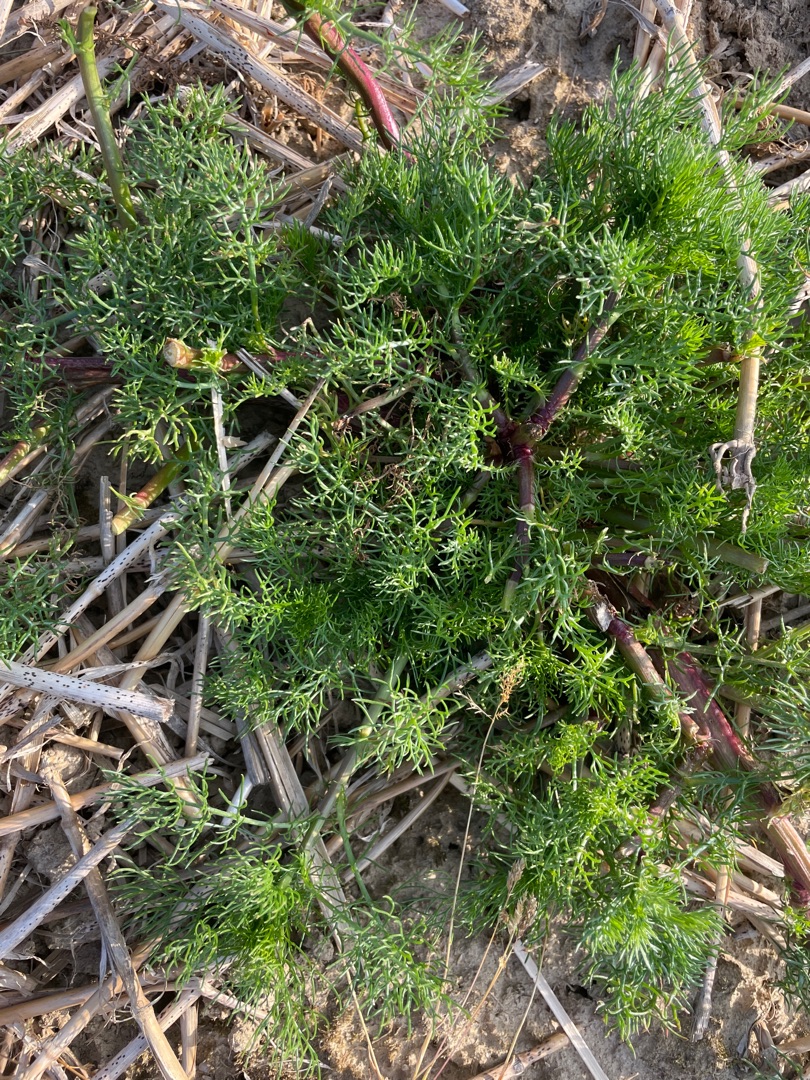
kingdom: Plantae
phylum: Tracheophyta
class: Magnoliopsida
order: Asterales
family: Asteraceae
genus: Tripleurospermum
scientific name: Tripleurospermum inodorum
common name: Lugtløs kamille
